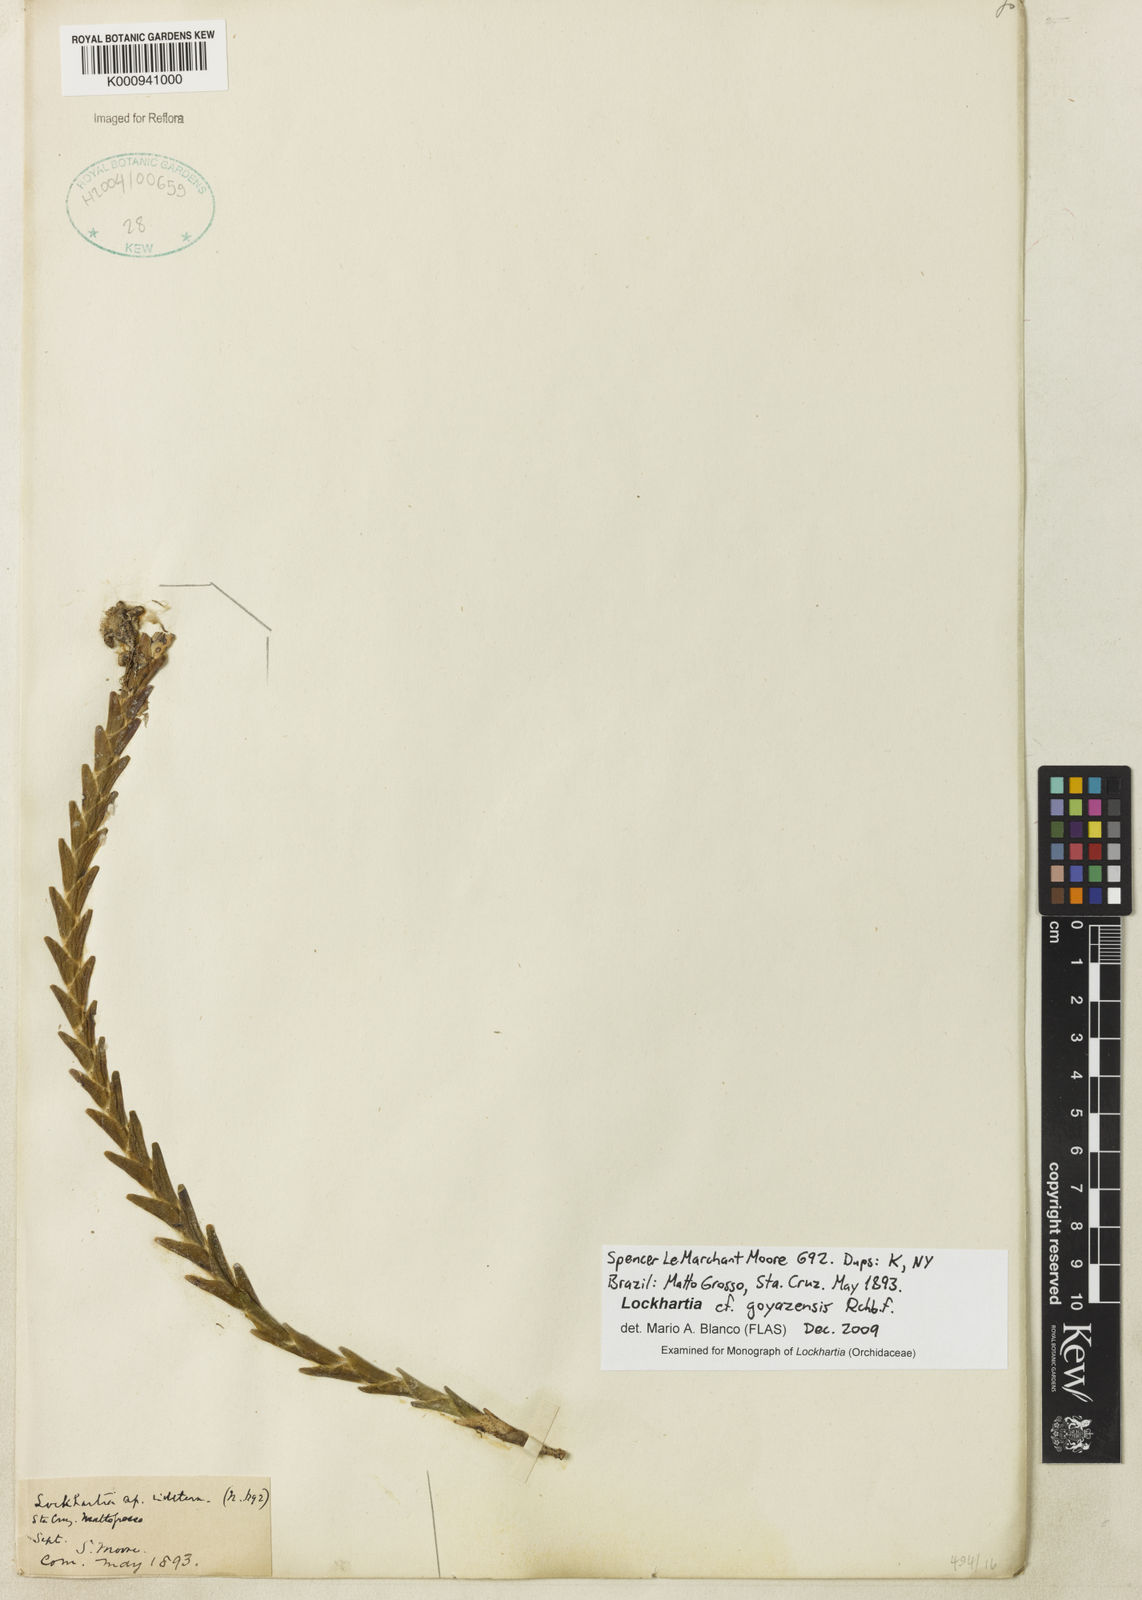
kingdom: Plantae
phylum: Tracheophyta
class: Liliopsida
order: Asparagales
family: Orchidaceae
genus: Lockhartia
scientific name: Lockhartia goyazensis
